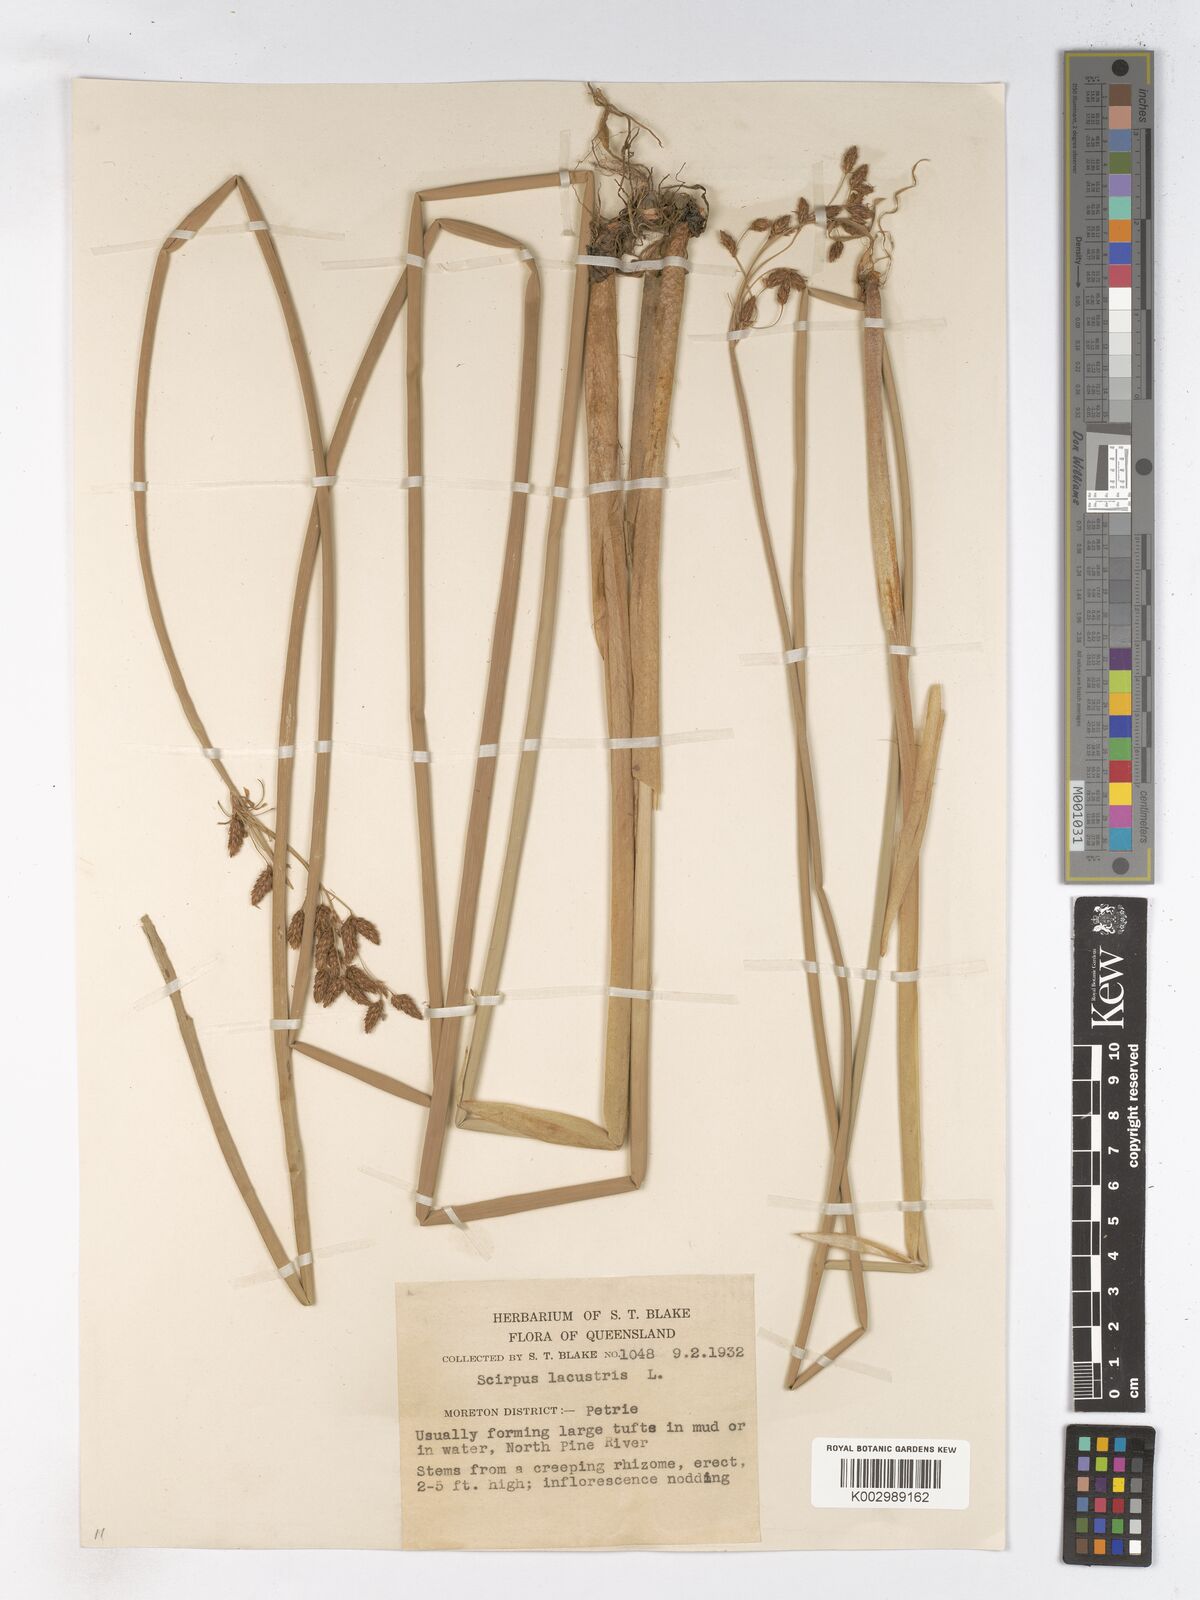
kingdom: Plantae
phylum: Tracheophyta
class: Liliopsida
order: Poales
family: Cyperaceae
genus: Schoenoplectus
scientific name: Schoenoplectus lacustris
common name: Common club-rush
